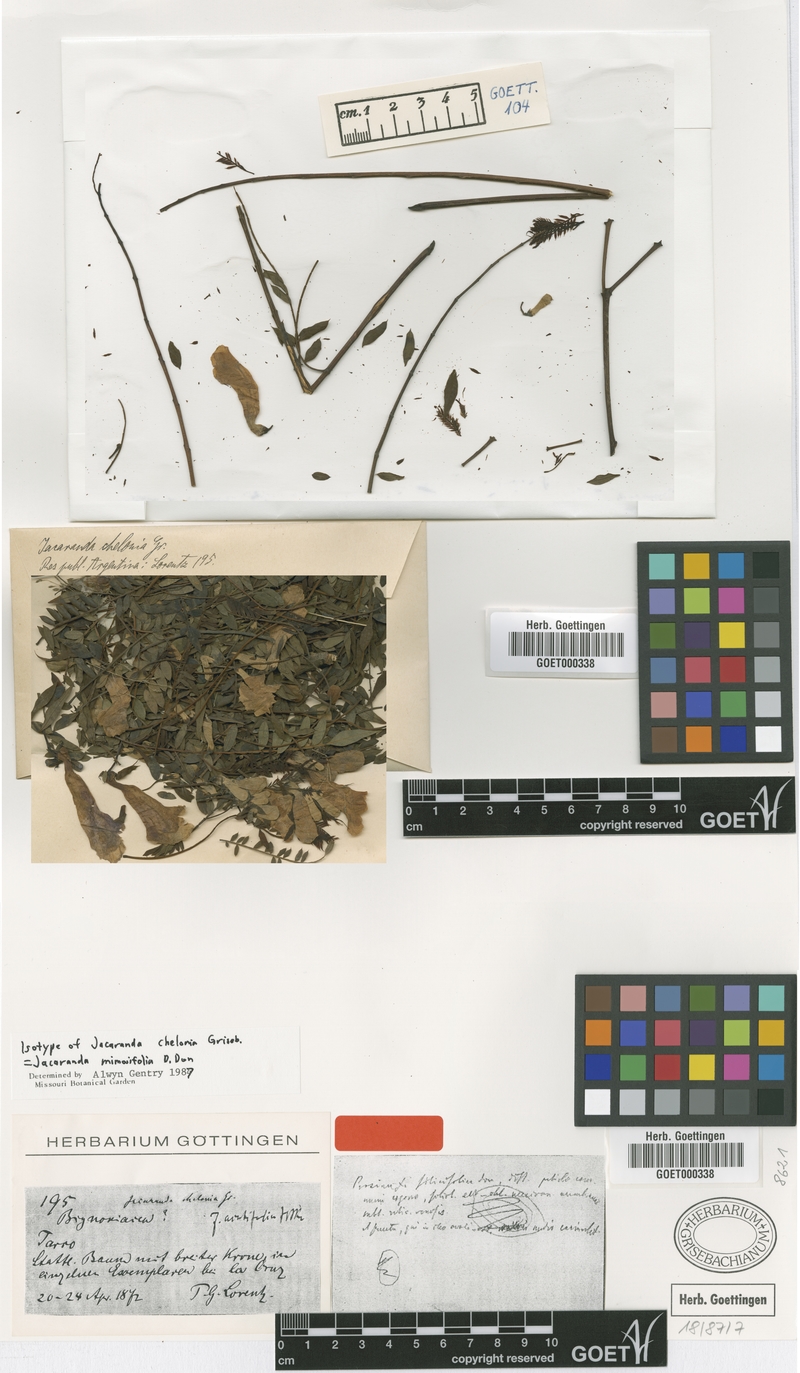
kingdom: Plantae
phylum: Tracheophyta
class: Magnoliopsida
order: Lamiales
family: Bignoniaceae
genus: Jacaranda
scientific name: Jacaranda mimosifolia
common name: Black poui
